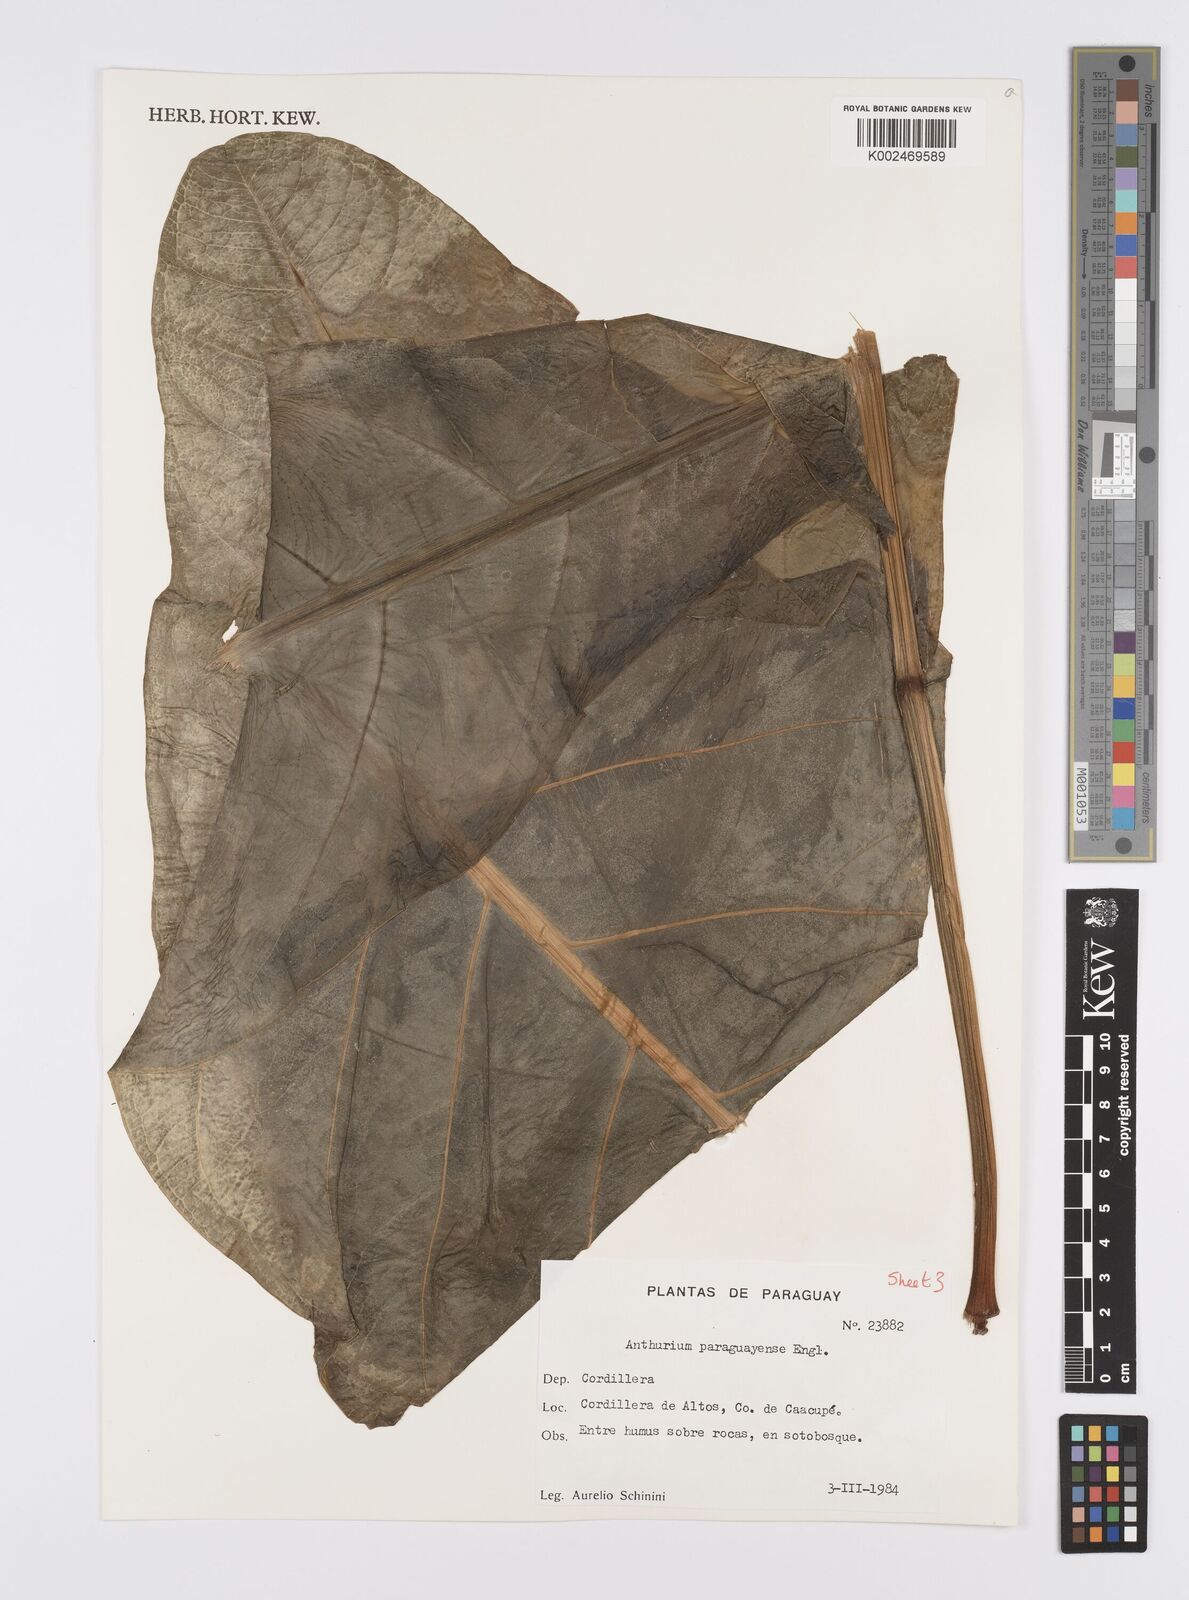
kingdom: Plantae
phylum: Tracheophyta
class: Liliopsida
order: Alismatales
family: Araceae
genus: Anthurium
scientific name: Anthurium paraguayense
